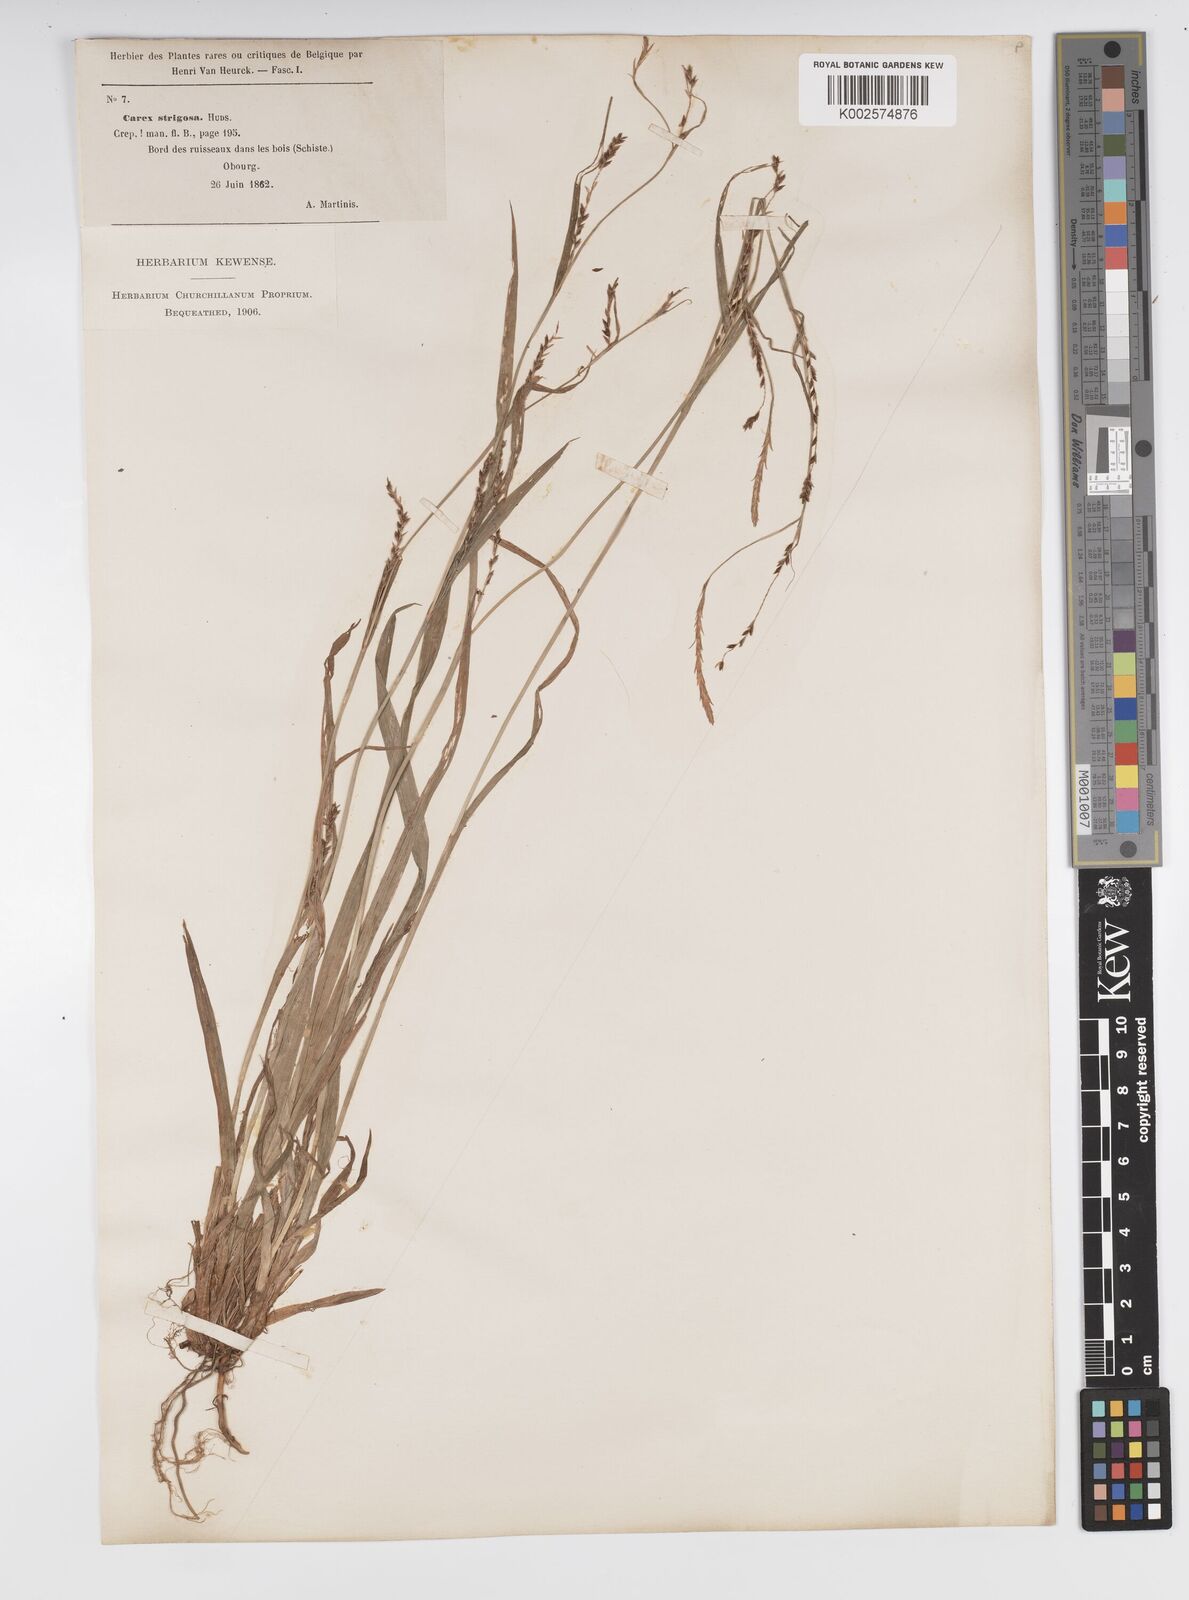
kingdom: Plantae
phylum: Tracheophyta
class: Liliopsida
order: Poales
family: Cyperaceae
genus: Carex
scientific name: Carex strigosa
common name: Thin-spiked wood-sedge
